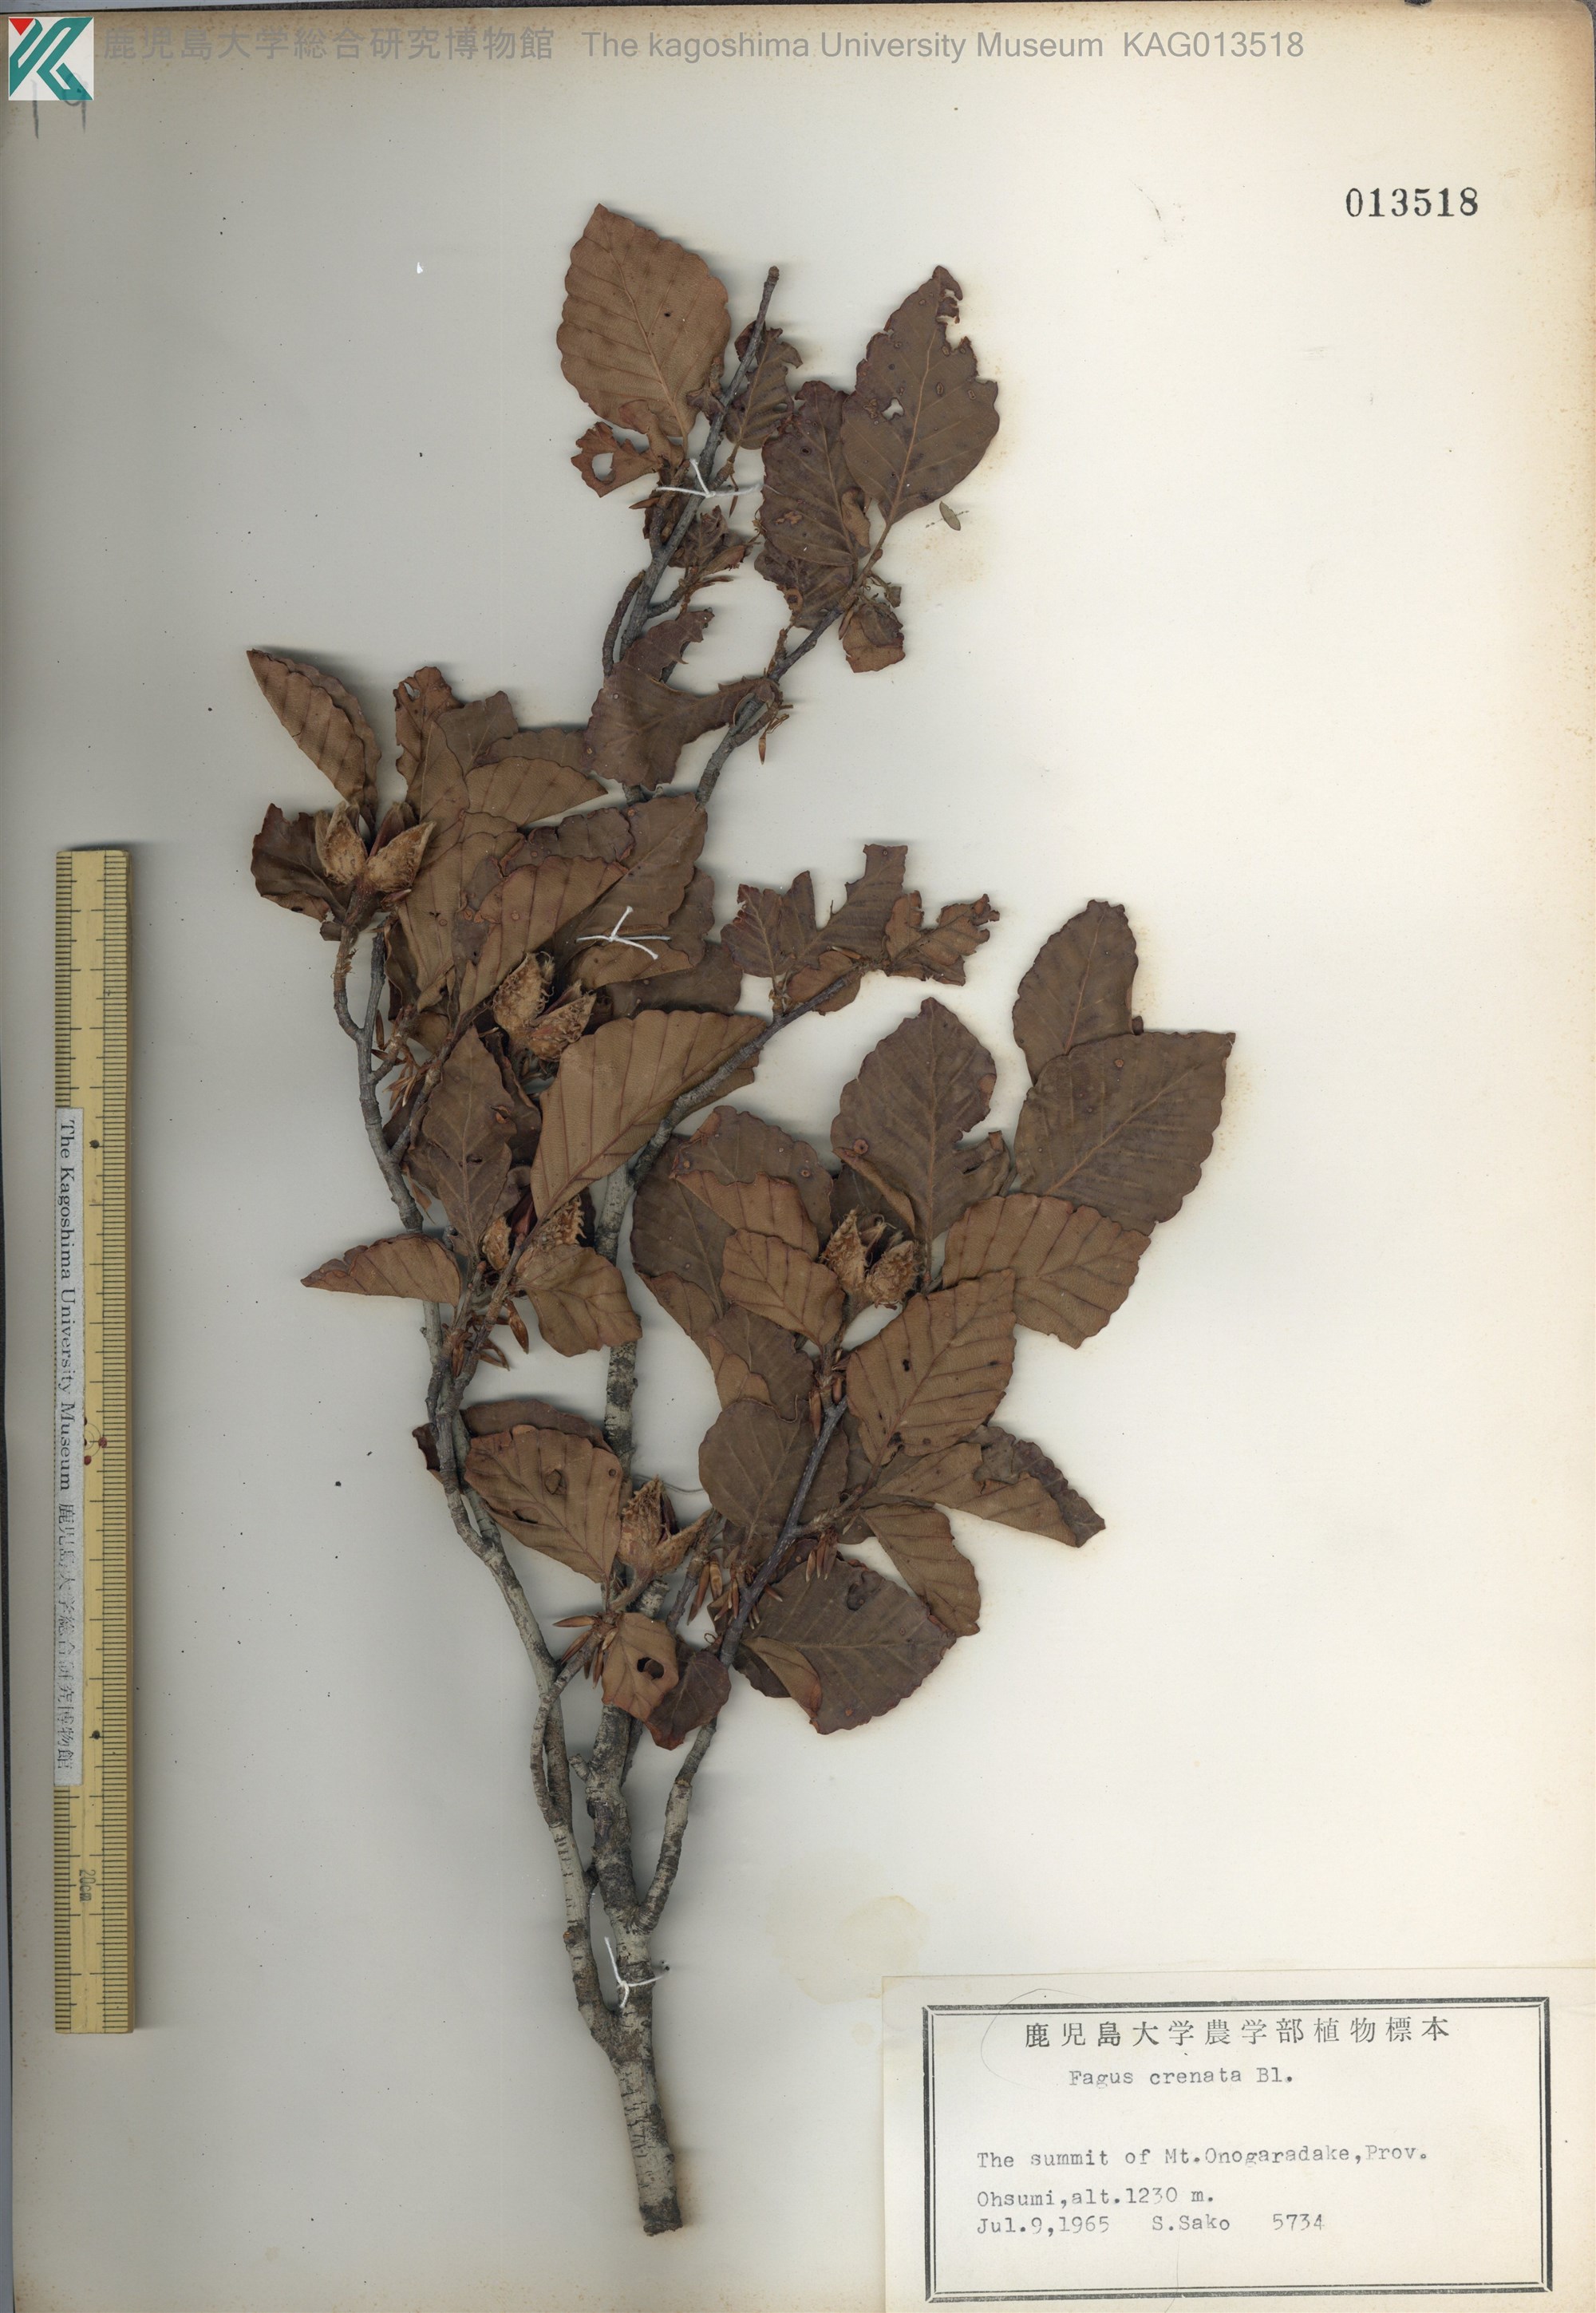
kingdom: Plantae
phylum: Tracheophyta
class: Magnoliopsida
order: Fagales
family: Fagaceae
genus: Fagus
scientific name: Fagus crenata
